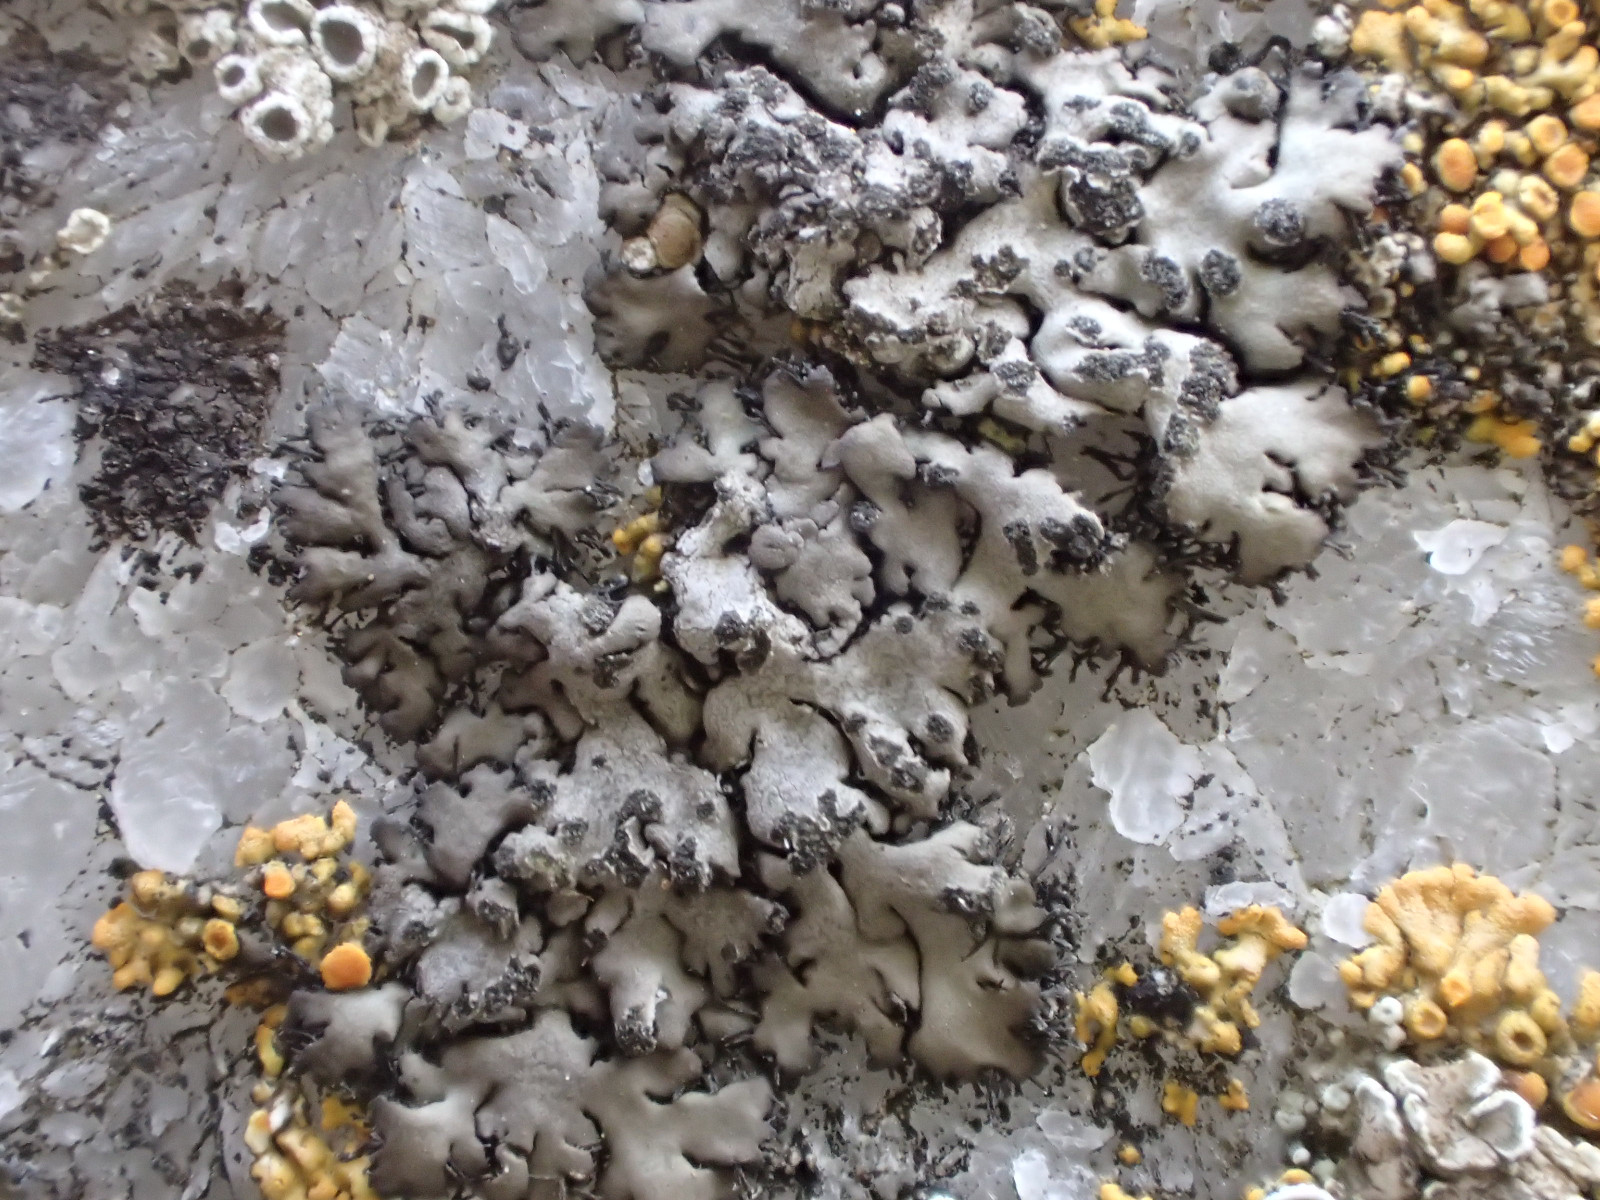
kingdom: Fungi
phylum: Ascomycota
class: Lecanoromycetes
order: Caliciales
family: Physciaceae
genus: Phaeophyscia
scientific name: Phaeophyscia orbicularis
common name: grågrøn rosetlav
